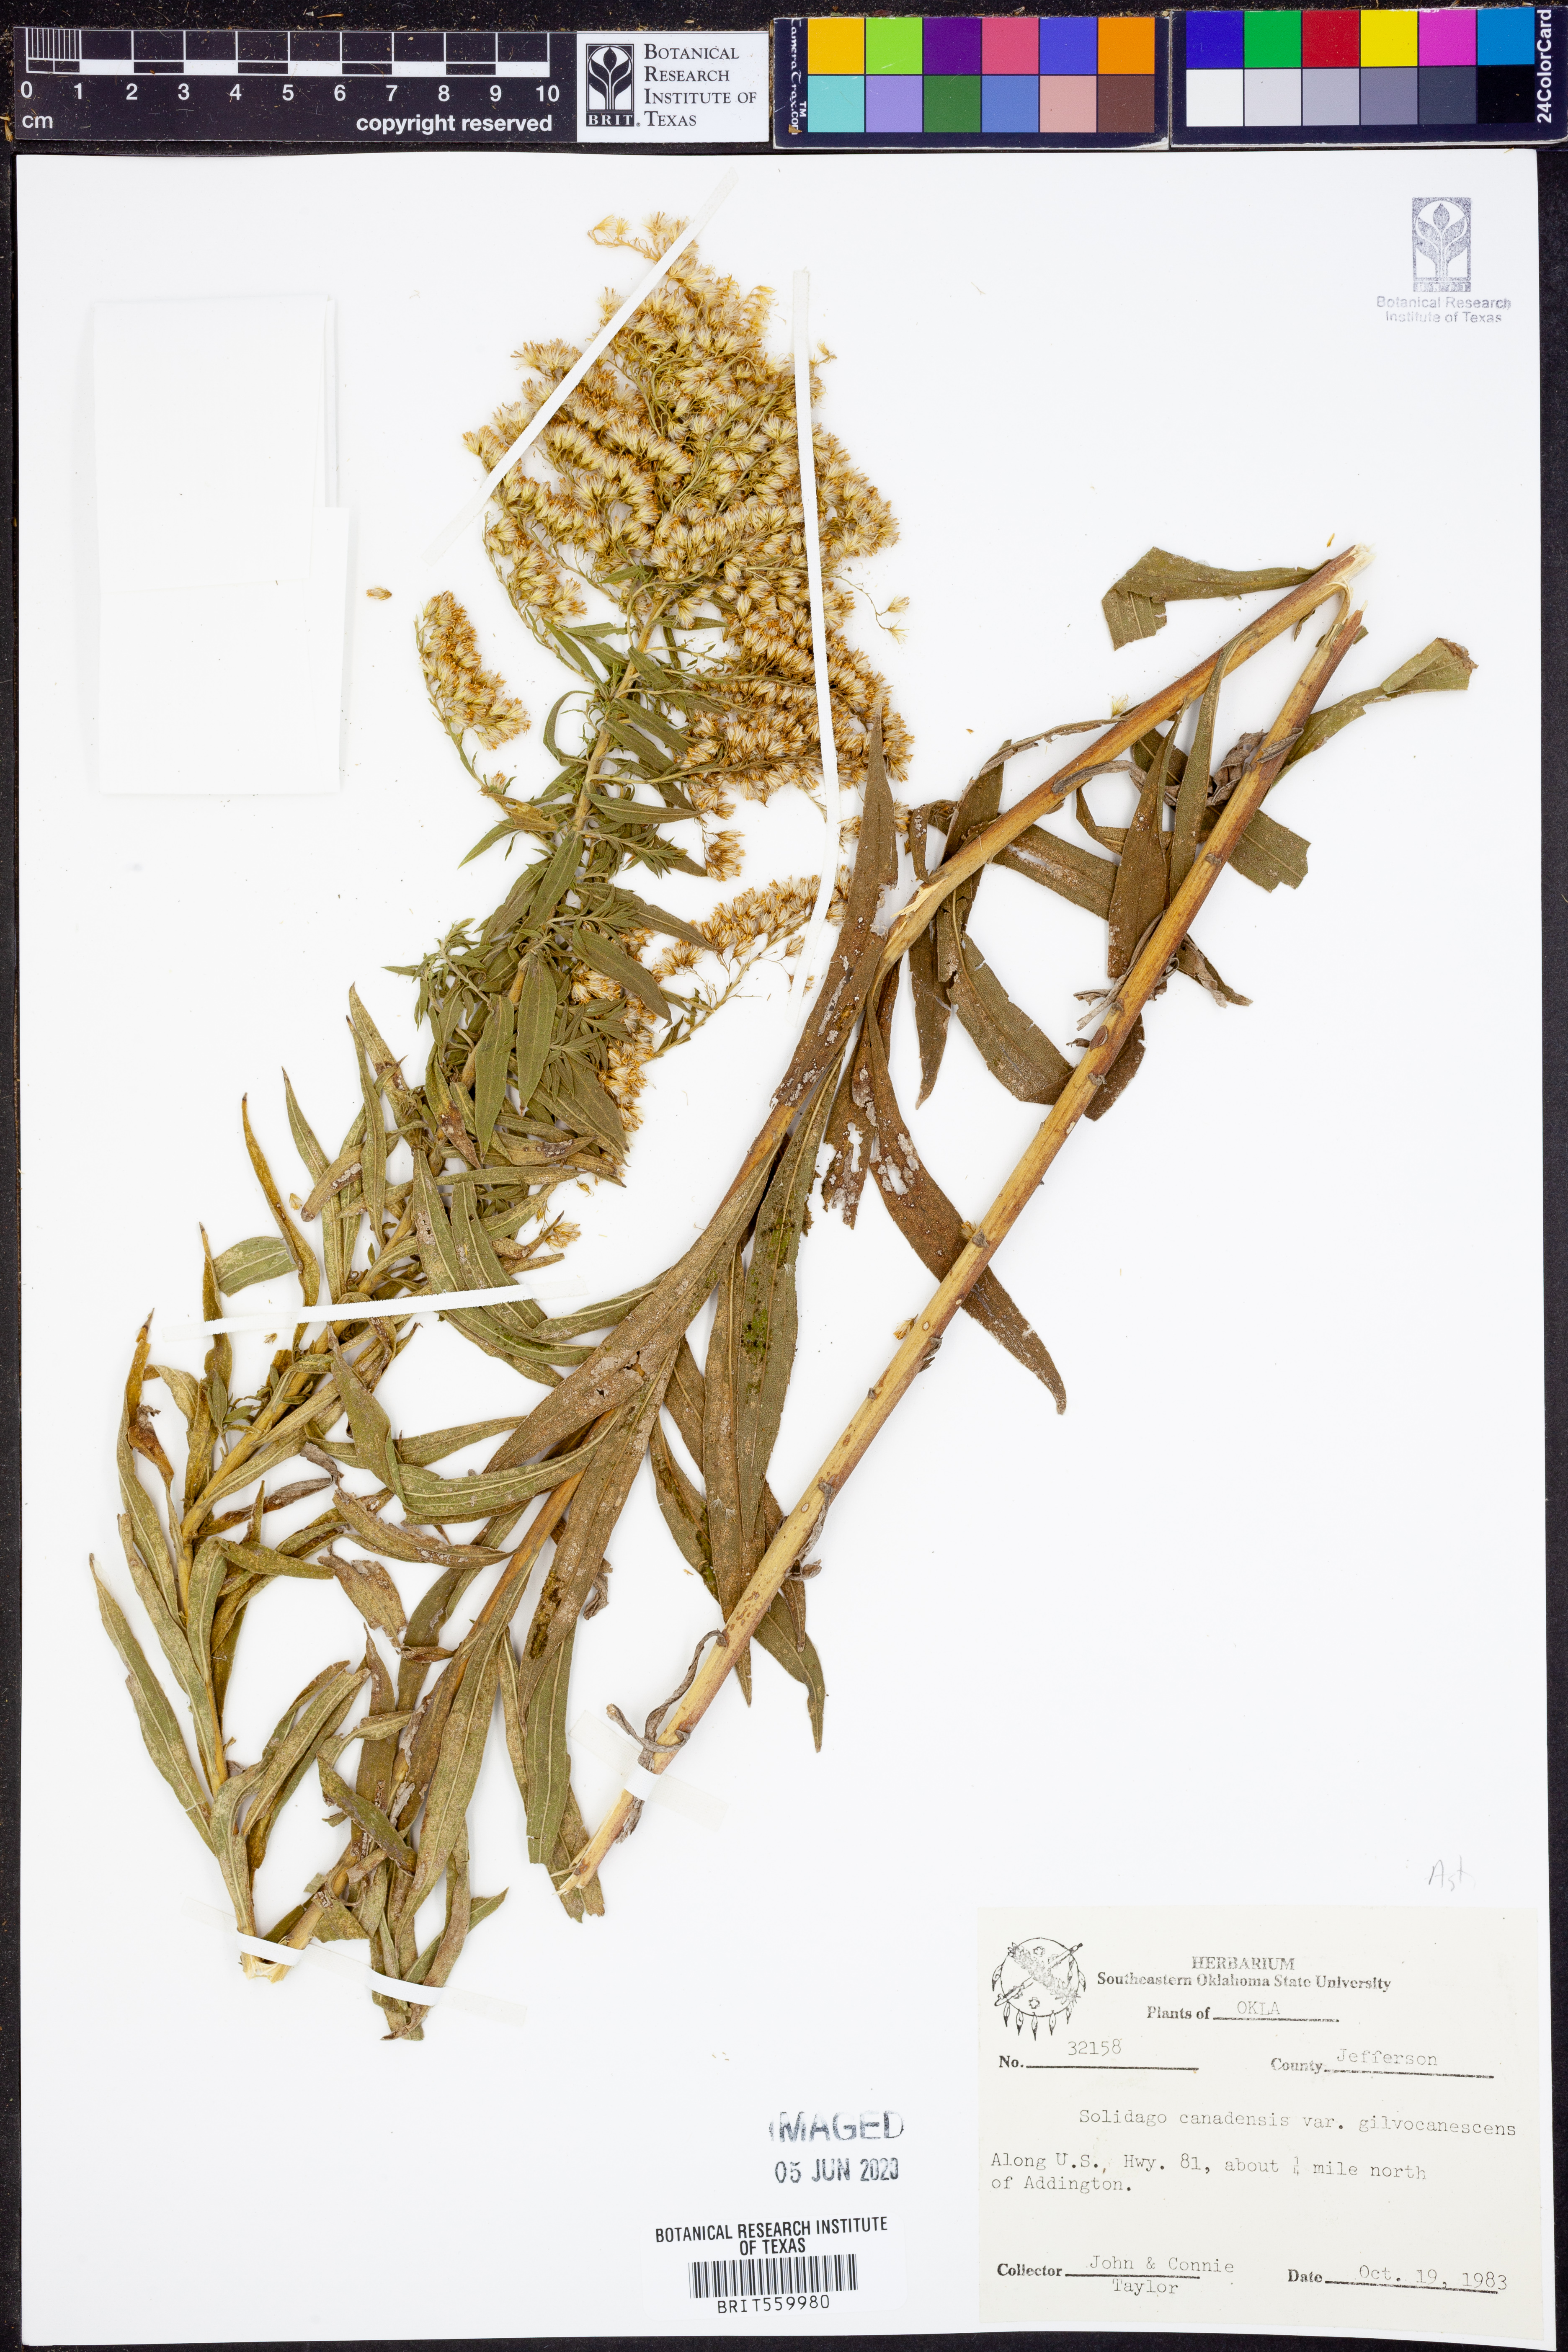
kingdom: Plantae
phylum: Tracheophyta
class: Magnoliopsida
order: Asterales
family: Asteraceae
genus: Solidago
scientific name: Solidago altissima
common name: Late goldenrod
